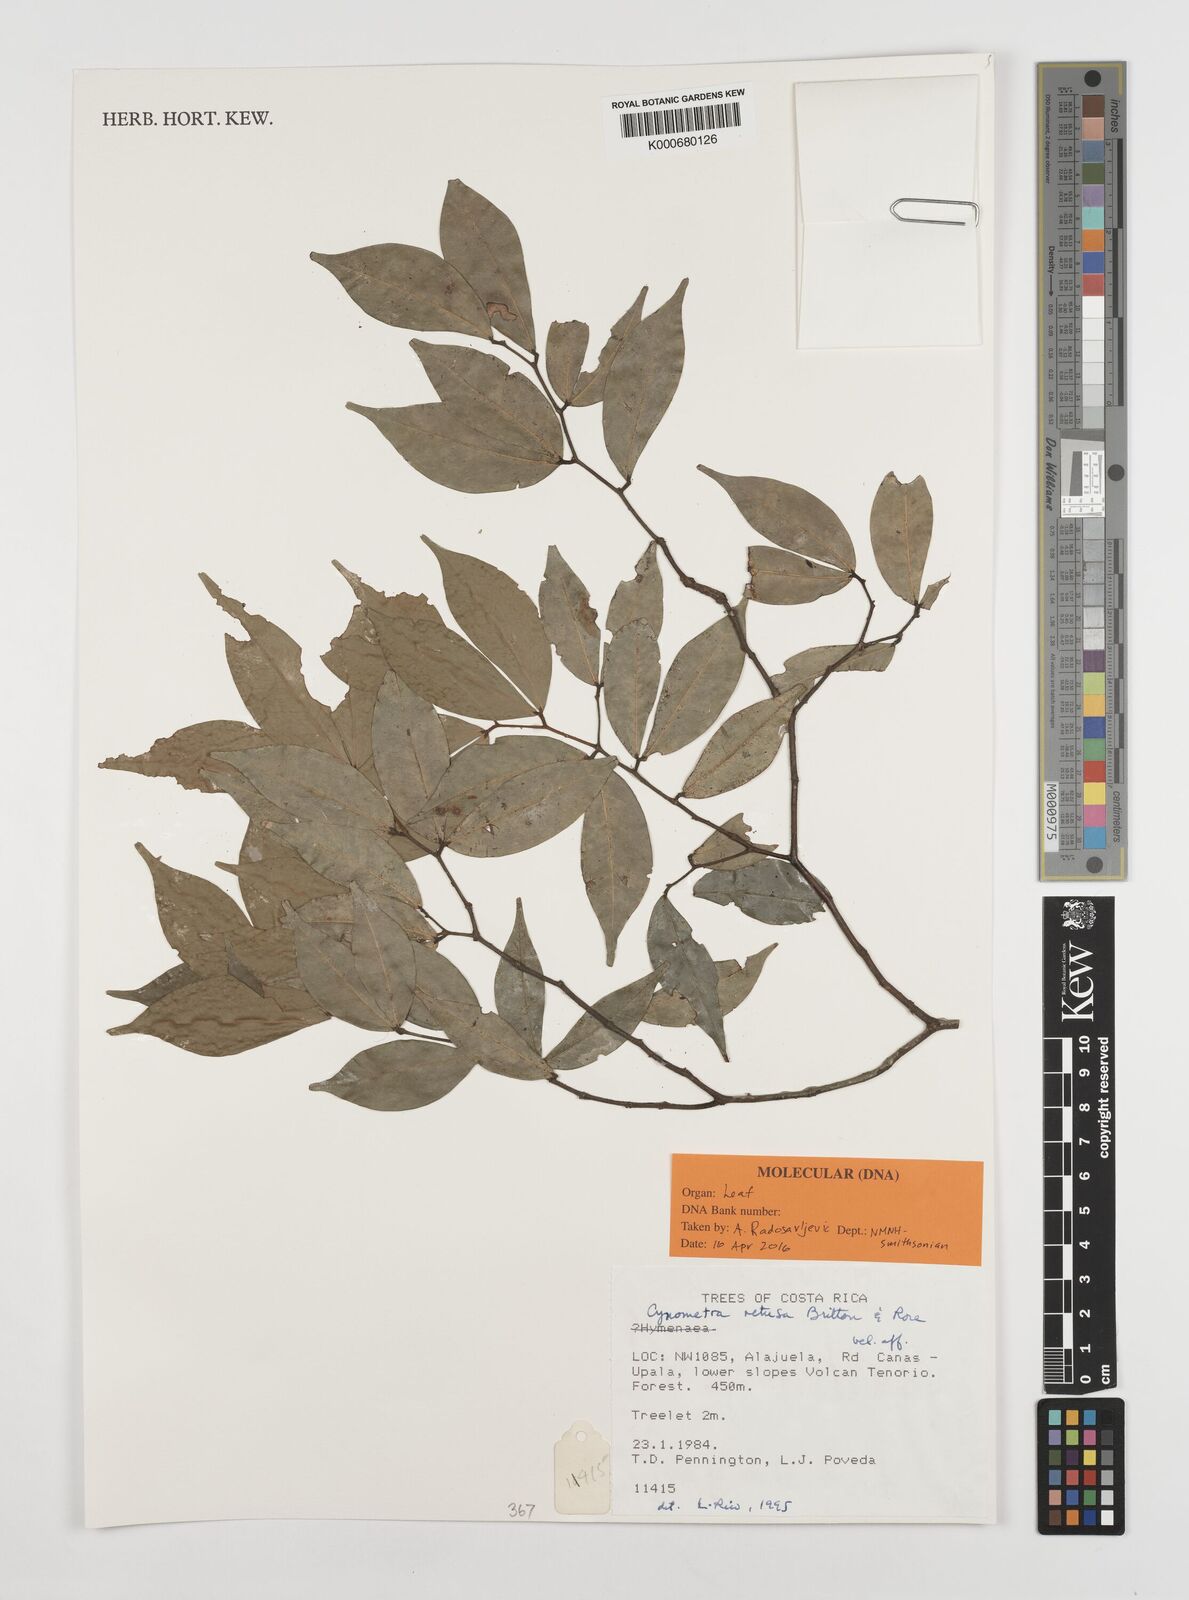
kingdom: Plantae
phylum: Tracheophyta
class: Magnoliopsida
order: Fabales
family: Fabaceae
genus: Cynometra
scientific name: Cynometra retusa
